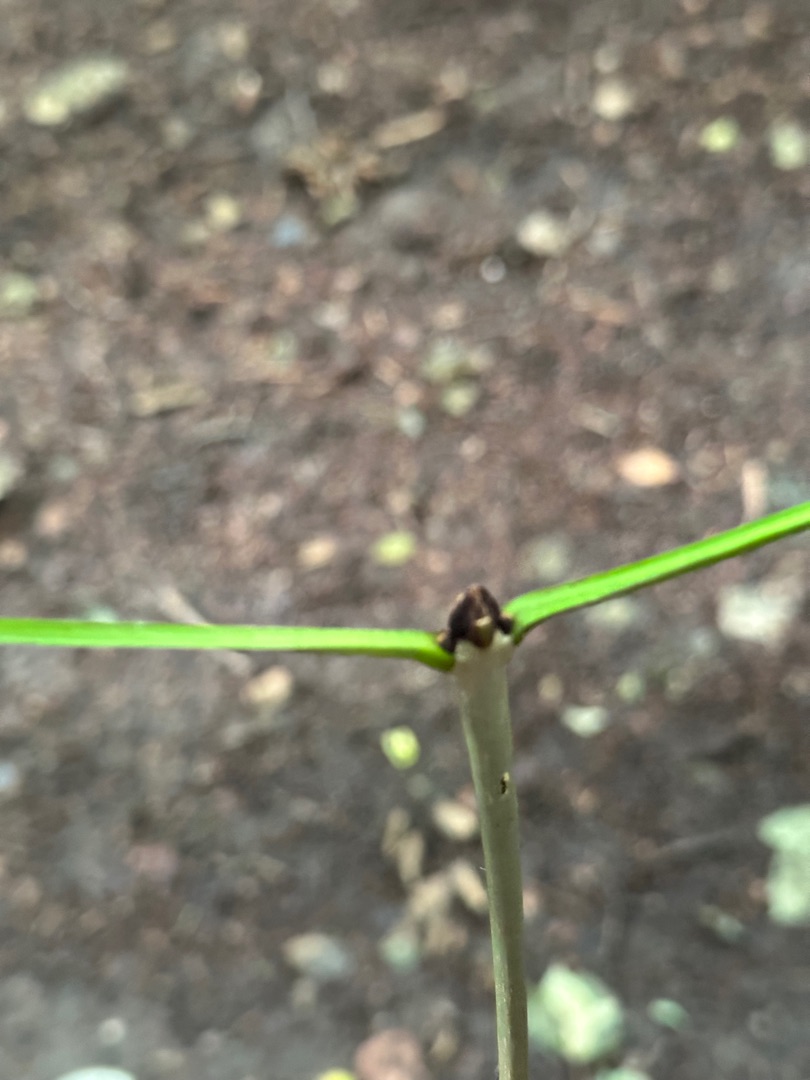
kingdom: Plantae
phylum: Tracheophyta
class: Magnoliopsida
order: Lamiales
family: Oleaceae
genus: Fraxinus
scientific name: Fraxinus excelsior
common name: Ask
